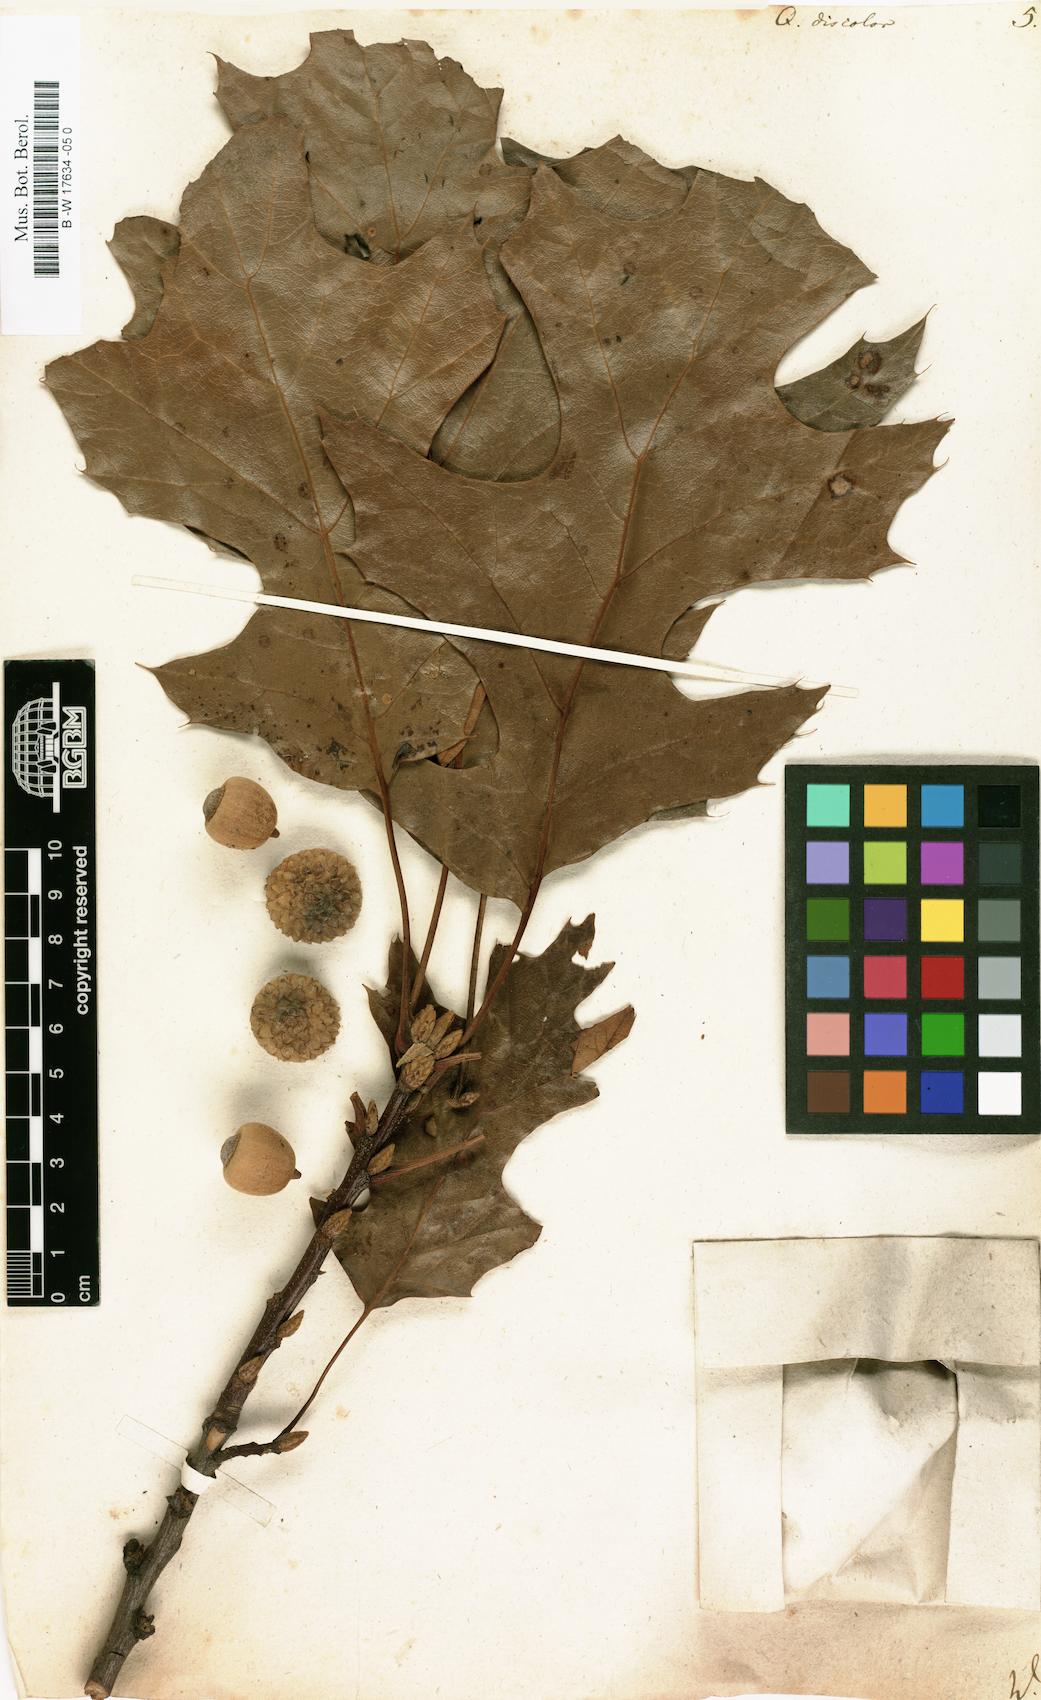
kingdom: Plantae
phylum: Tracheophyta
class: Magnoliopsida
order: Fagales
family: Fagaceae
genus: Quercus
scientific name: Quercus velutina
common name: Black oak
